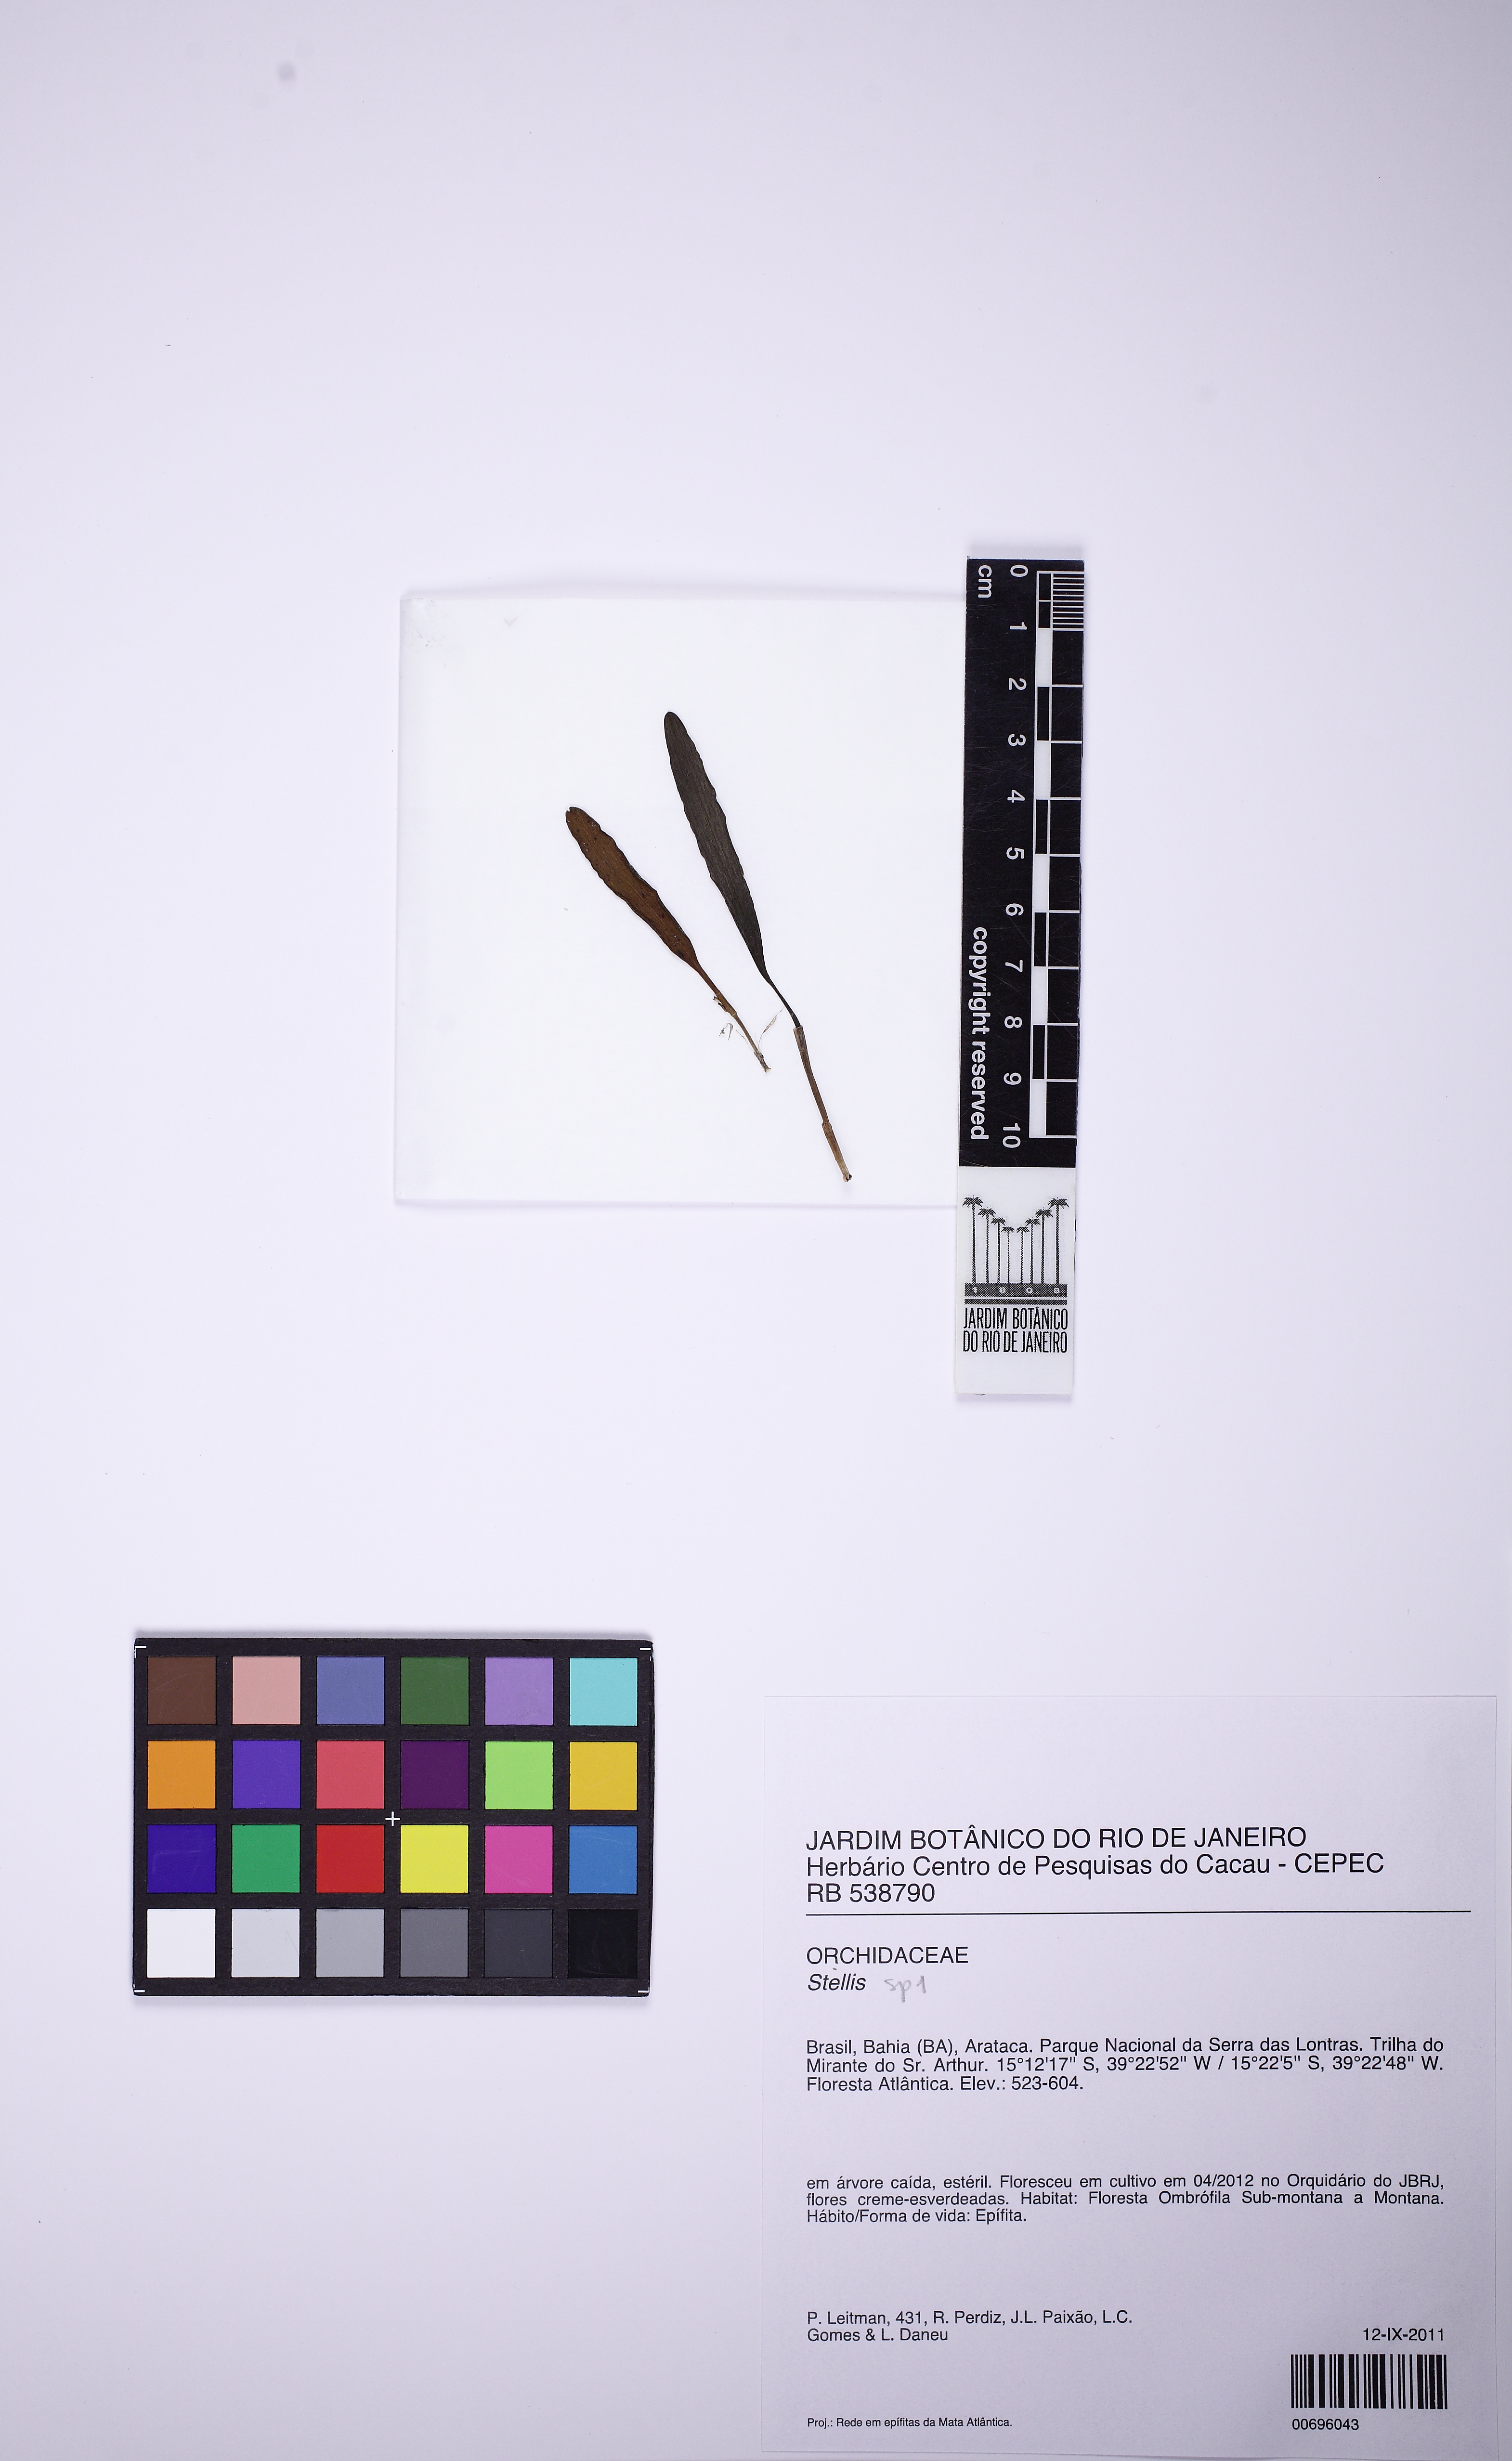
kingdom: Plantae
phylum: Tracheophyta
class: Liliopsida
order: Asparagales
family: Orchidaceae
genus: Stelis
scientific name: Stelis
